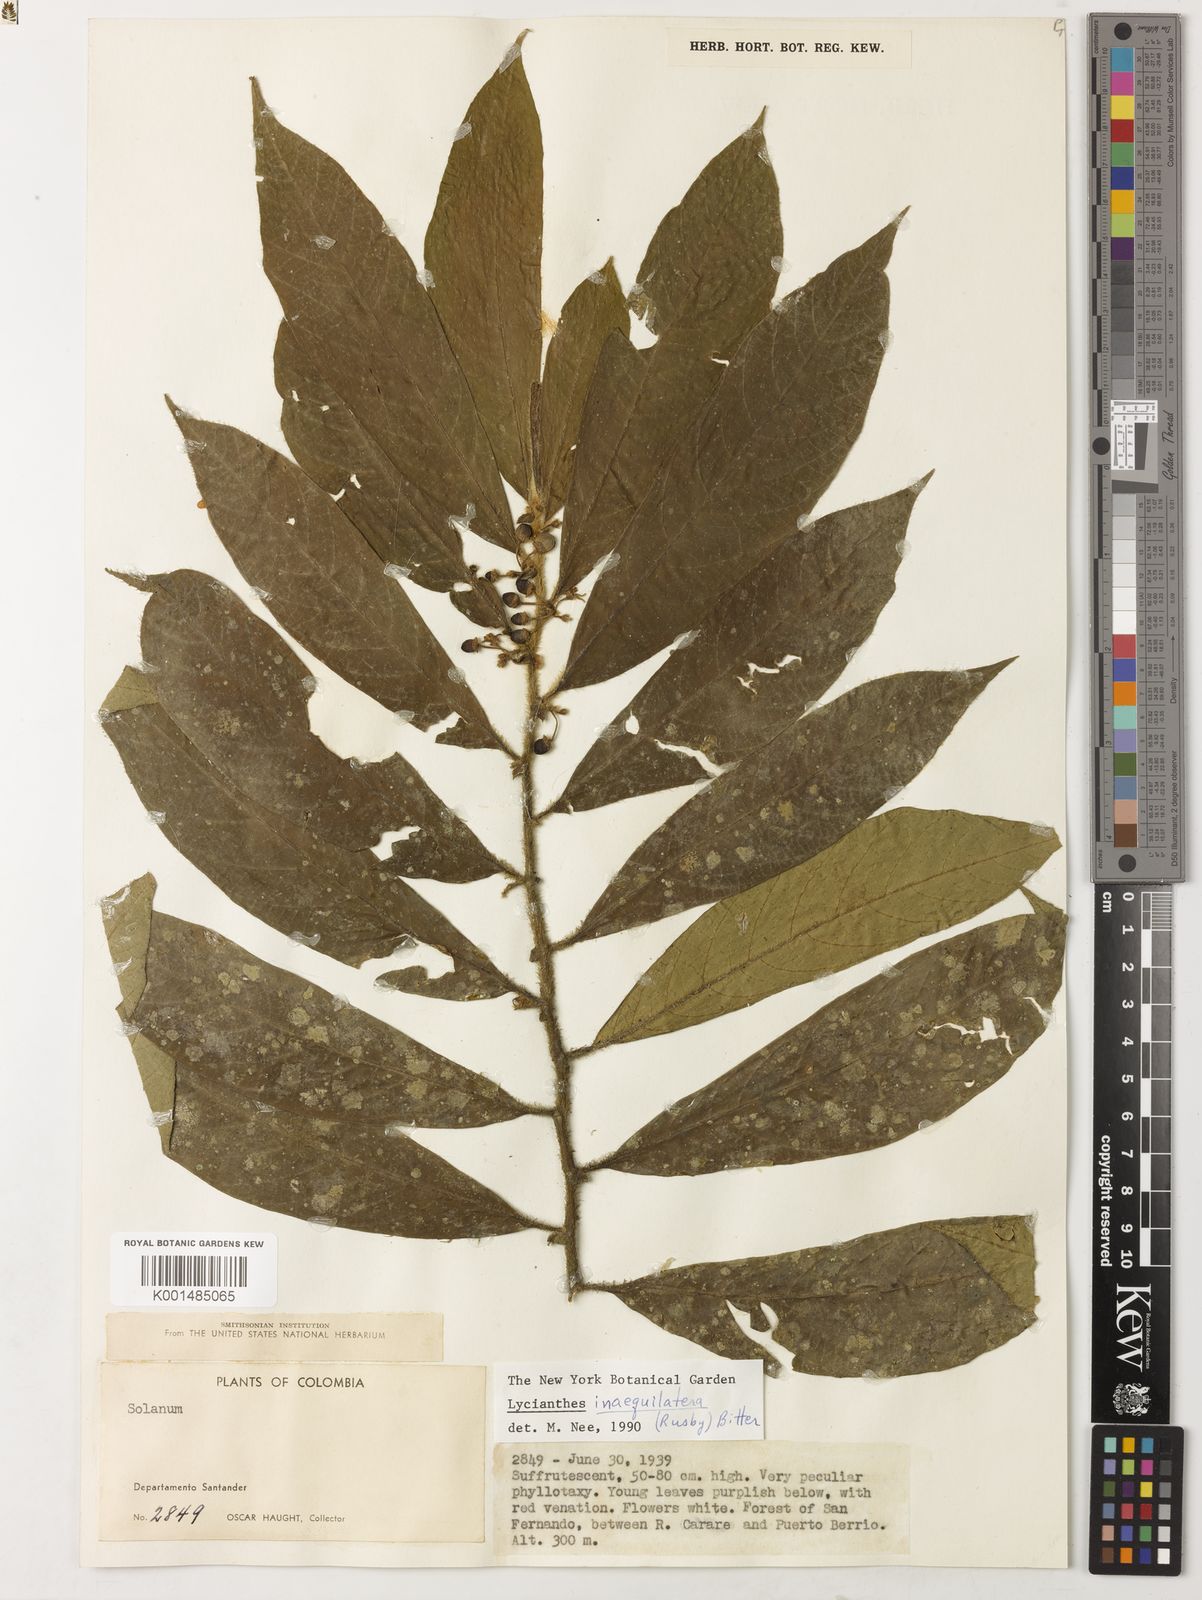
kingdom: Plantae
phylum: Tracheophyta
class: Magnoliopsida
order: Solanales
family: Solanaceae
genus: Lycianthes
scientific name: Lycianthes inaequilatera
